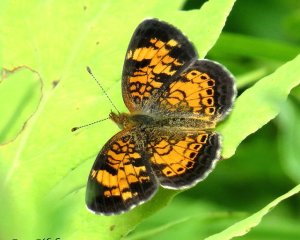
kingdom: Animalia
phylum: Arthropoda
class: Insecta
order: Lepidoptera
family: Nymphalidae
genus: Phyciodes
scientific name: Phyciodes tharos
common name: Pearl Crescent
